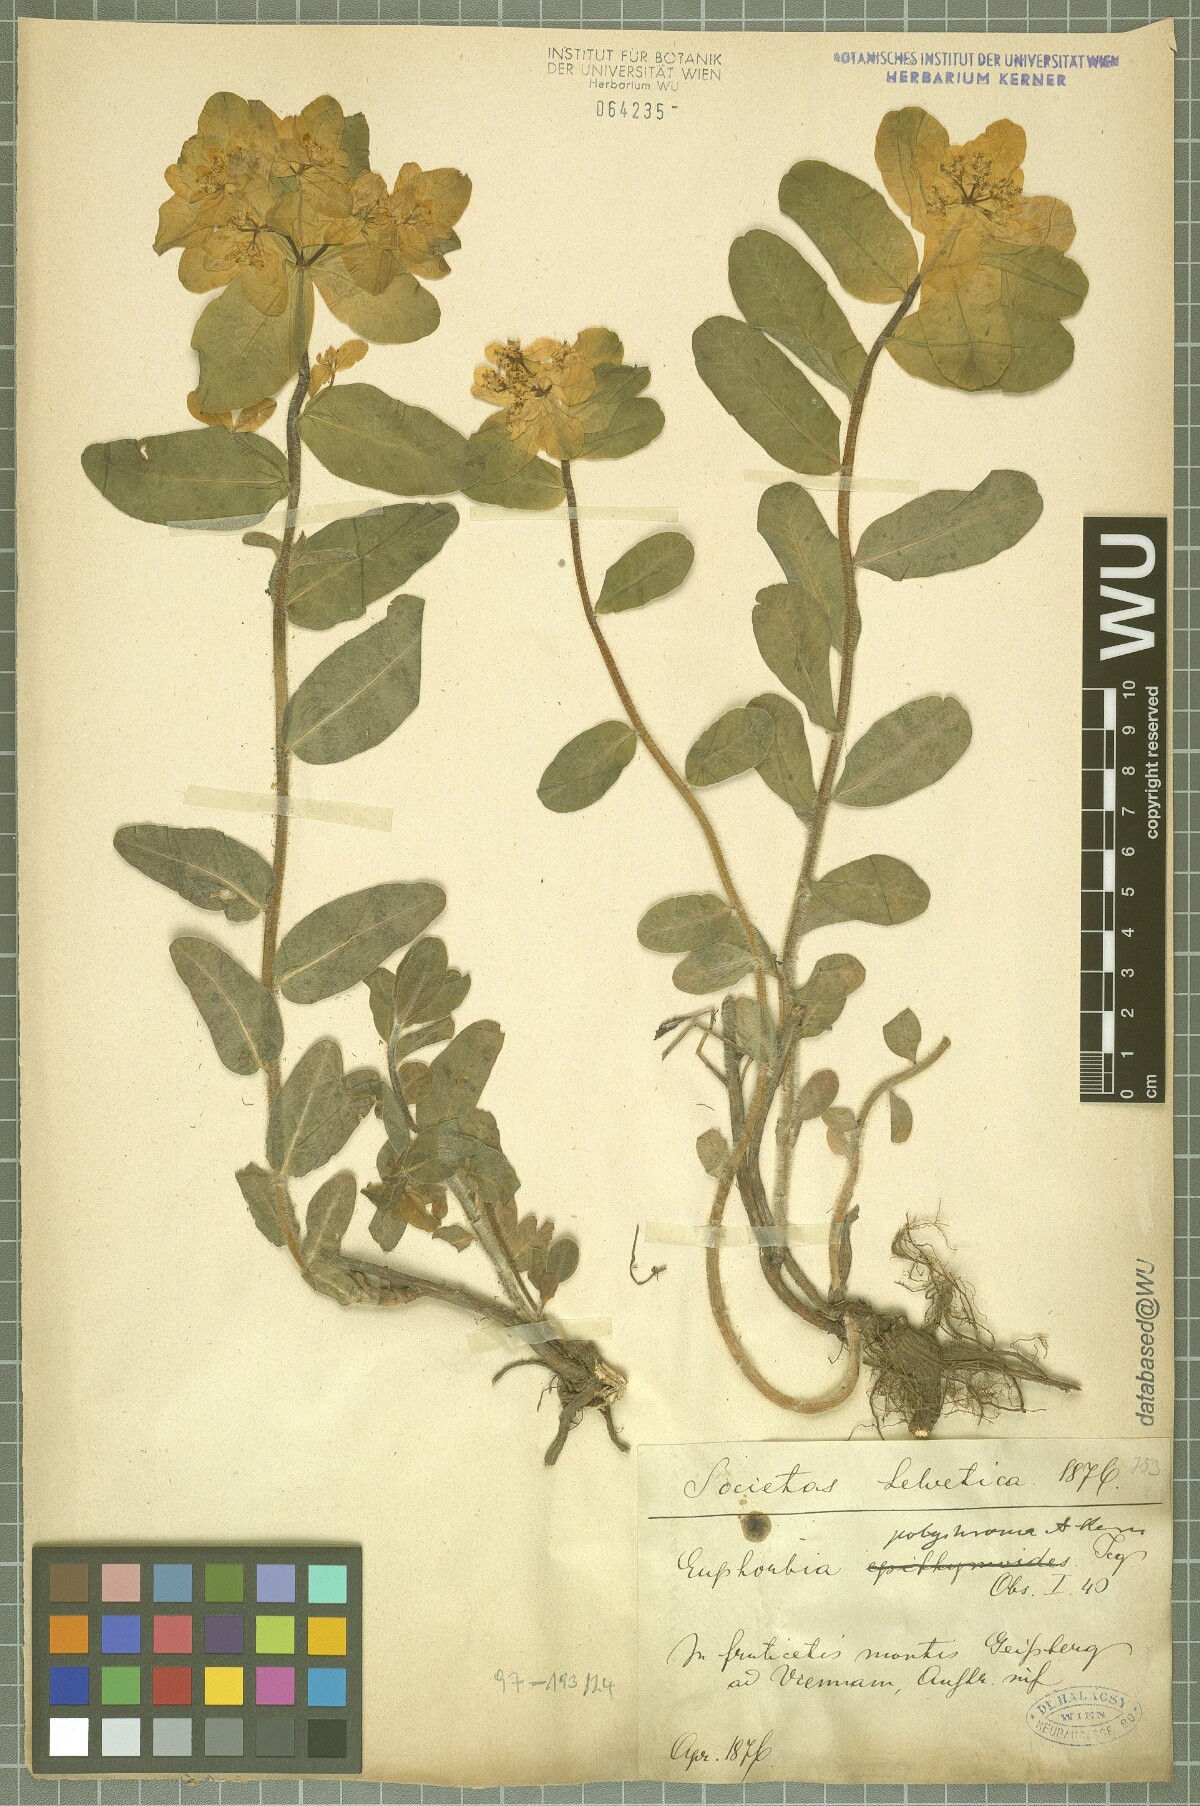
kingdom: Plantae
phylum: Tracheophyta
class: Magnoliopsida
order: Malpighiales
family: Euphorbiaceae
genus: Euphorbia
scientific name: Euphorbia epithymoides
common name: Cushion spurge
